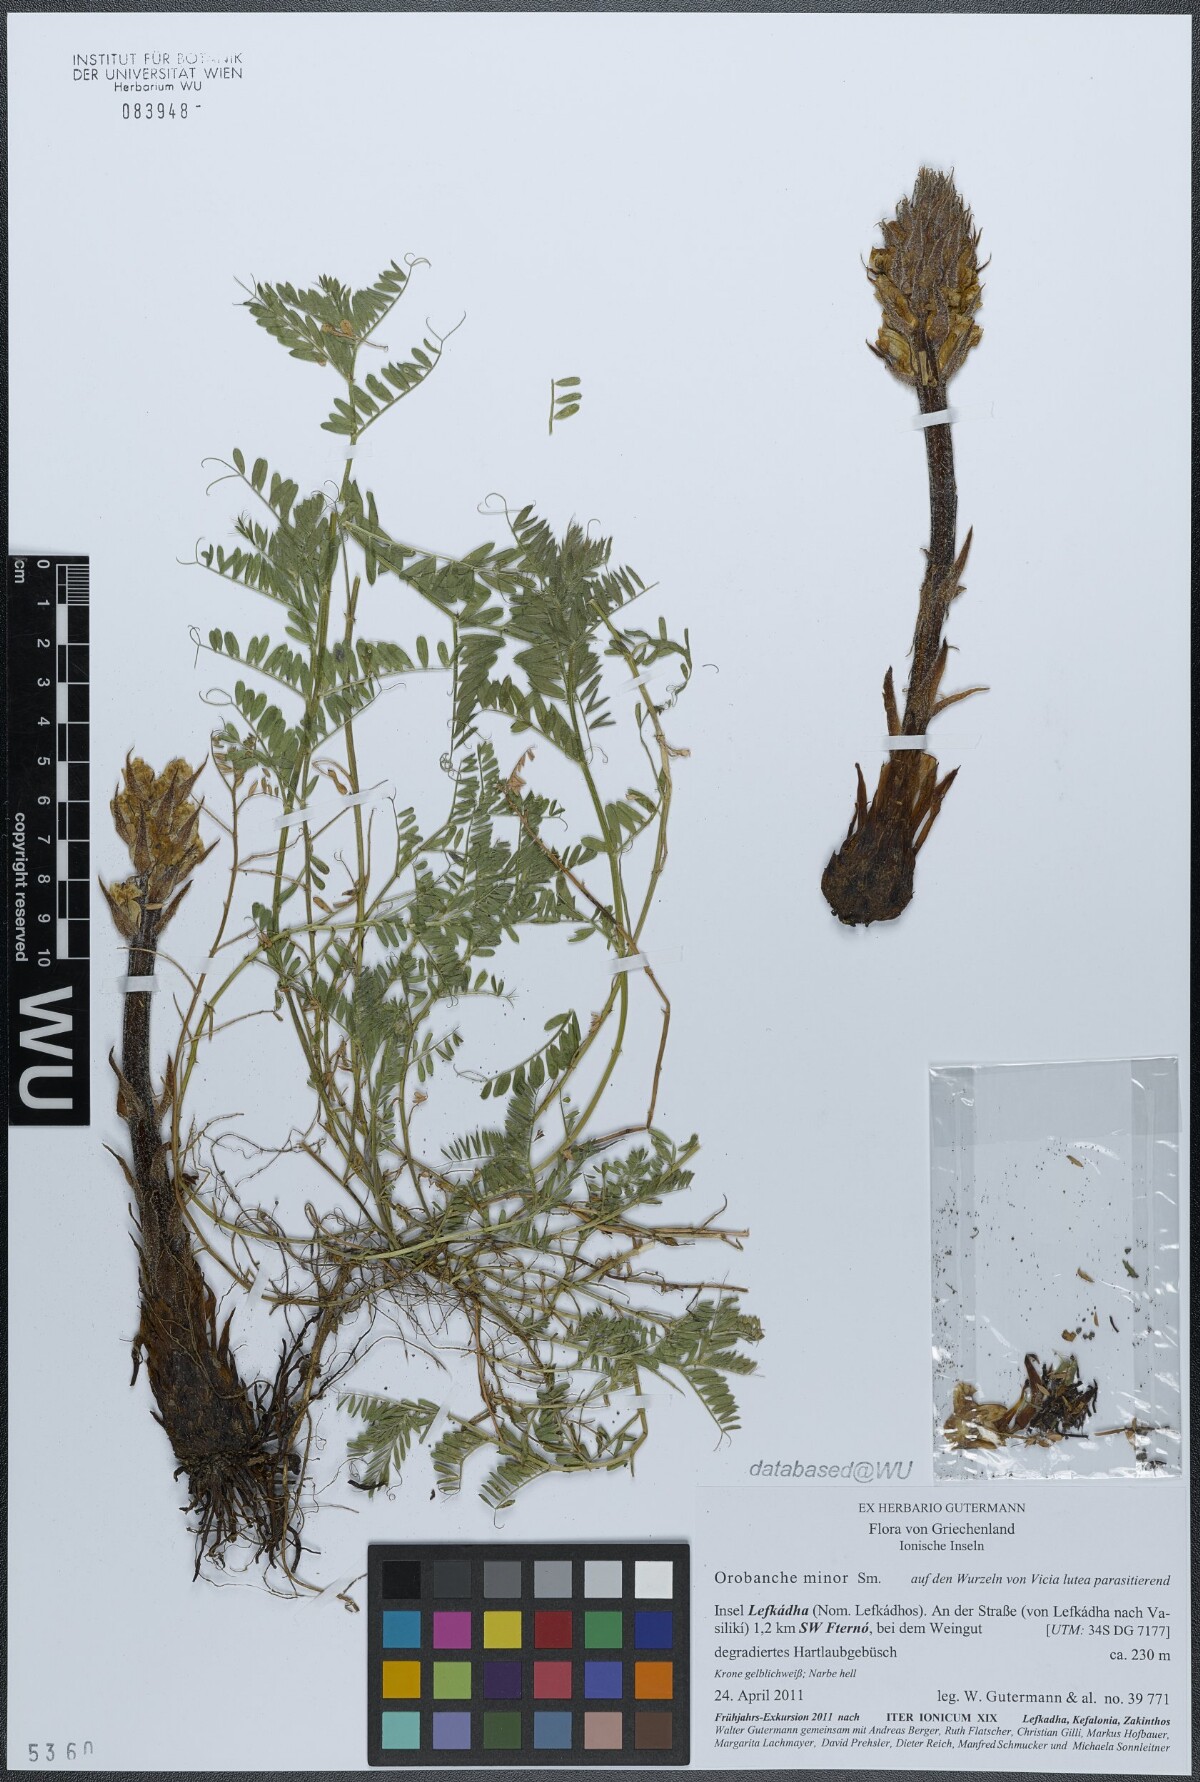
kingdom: Plantae
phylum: Tracheophyta
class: Magnoliopsida
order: Lamiales
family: Orobanchaceae
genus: Orobanche
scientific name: Orobanche crenata
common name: Bean broomrape
